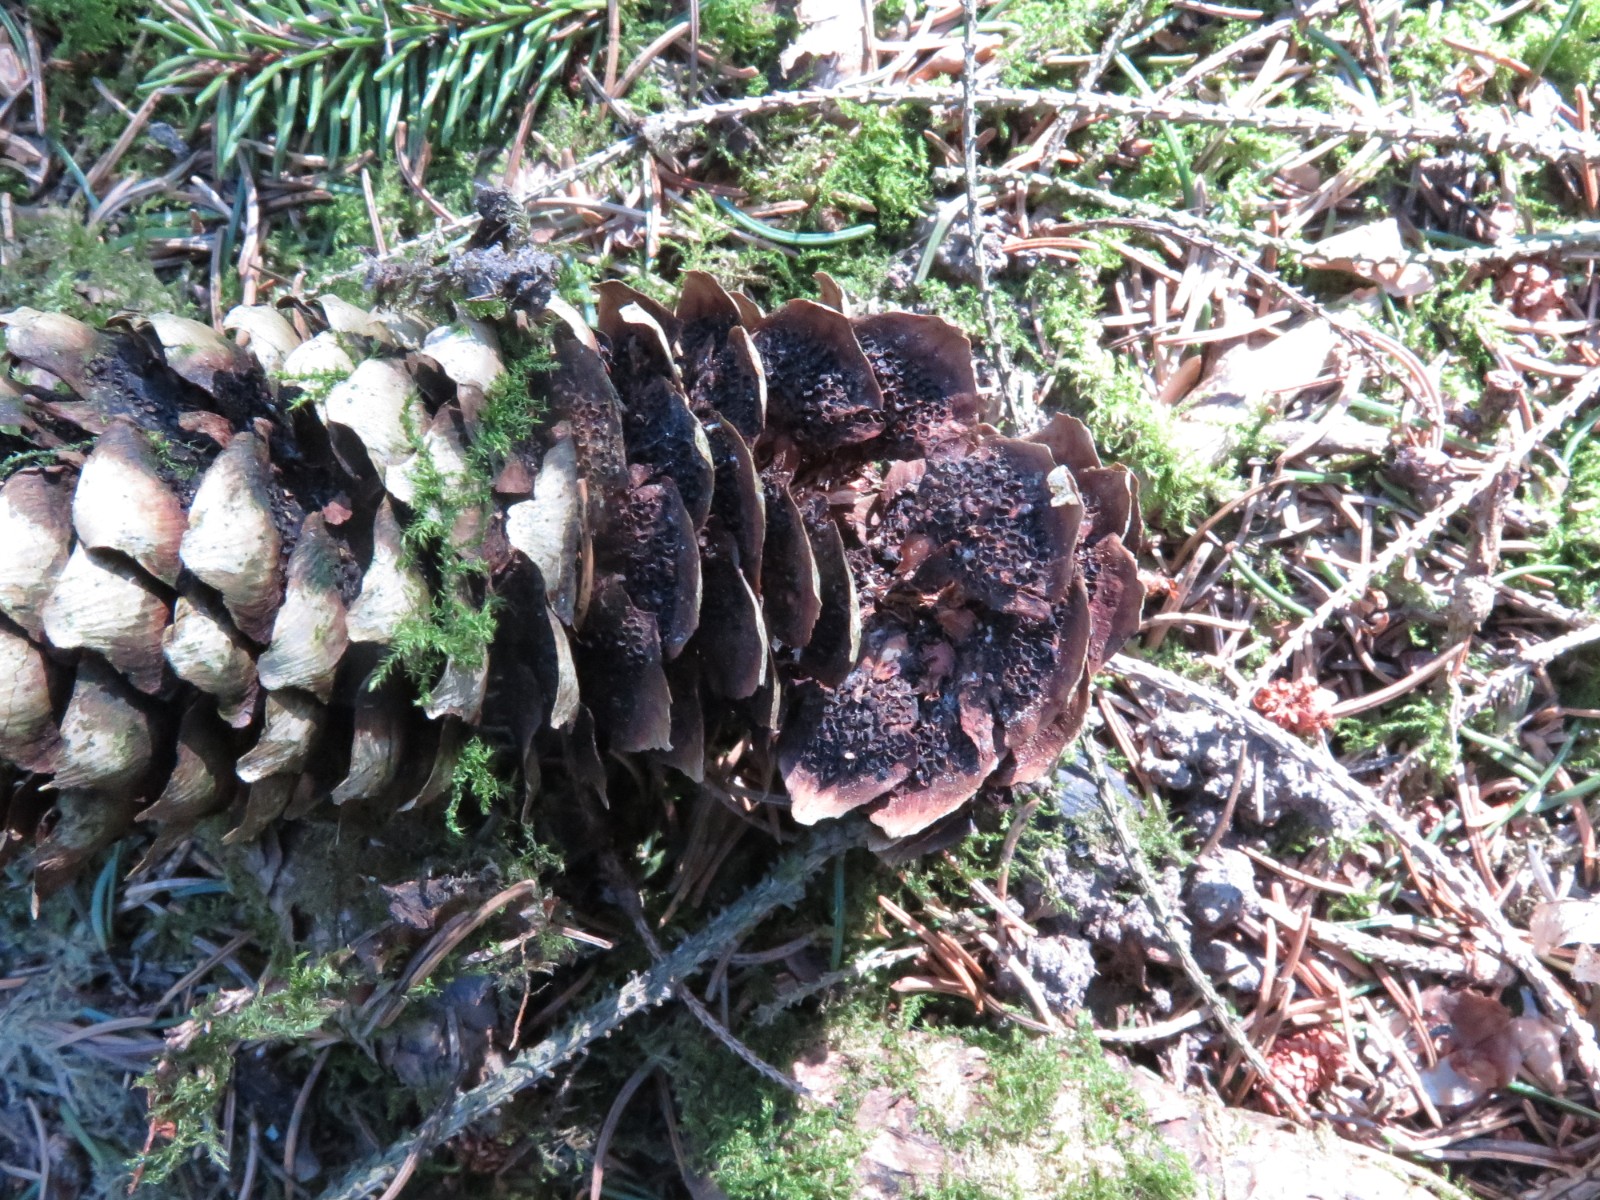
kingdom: Fungi
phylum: Basidiomycota
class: Pucciniomycetes
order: Pucciniales
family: Pucciniastraceae
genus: Thekopsora
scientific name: Thekopsora areolata
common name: grankogle-nålerust
